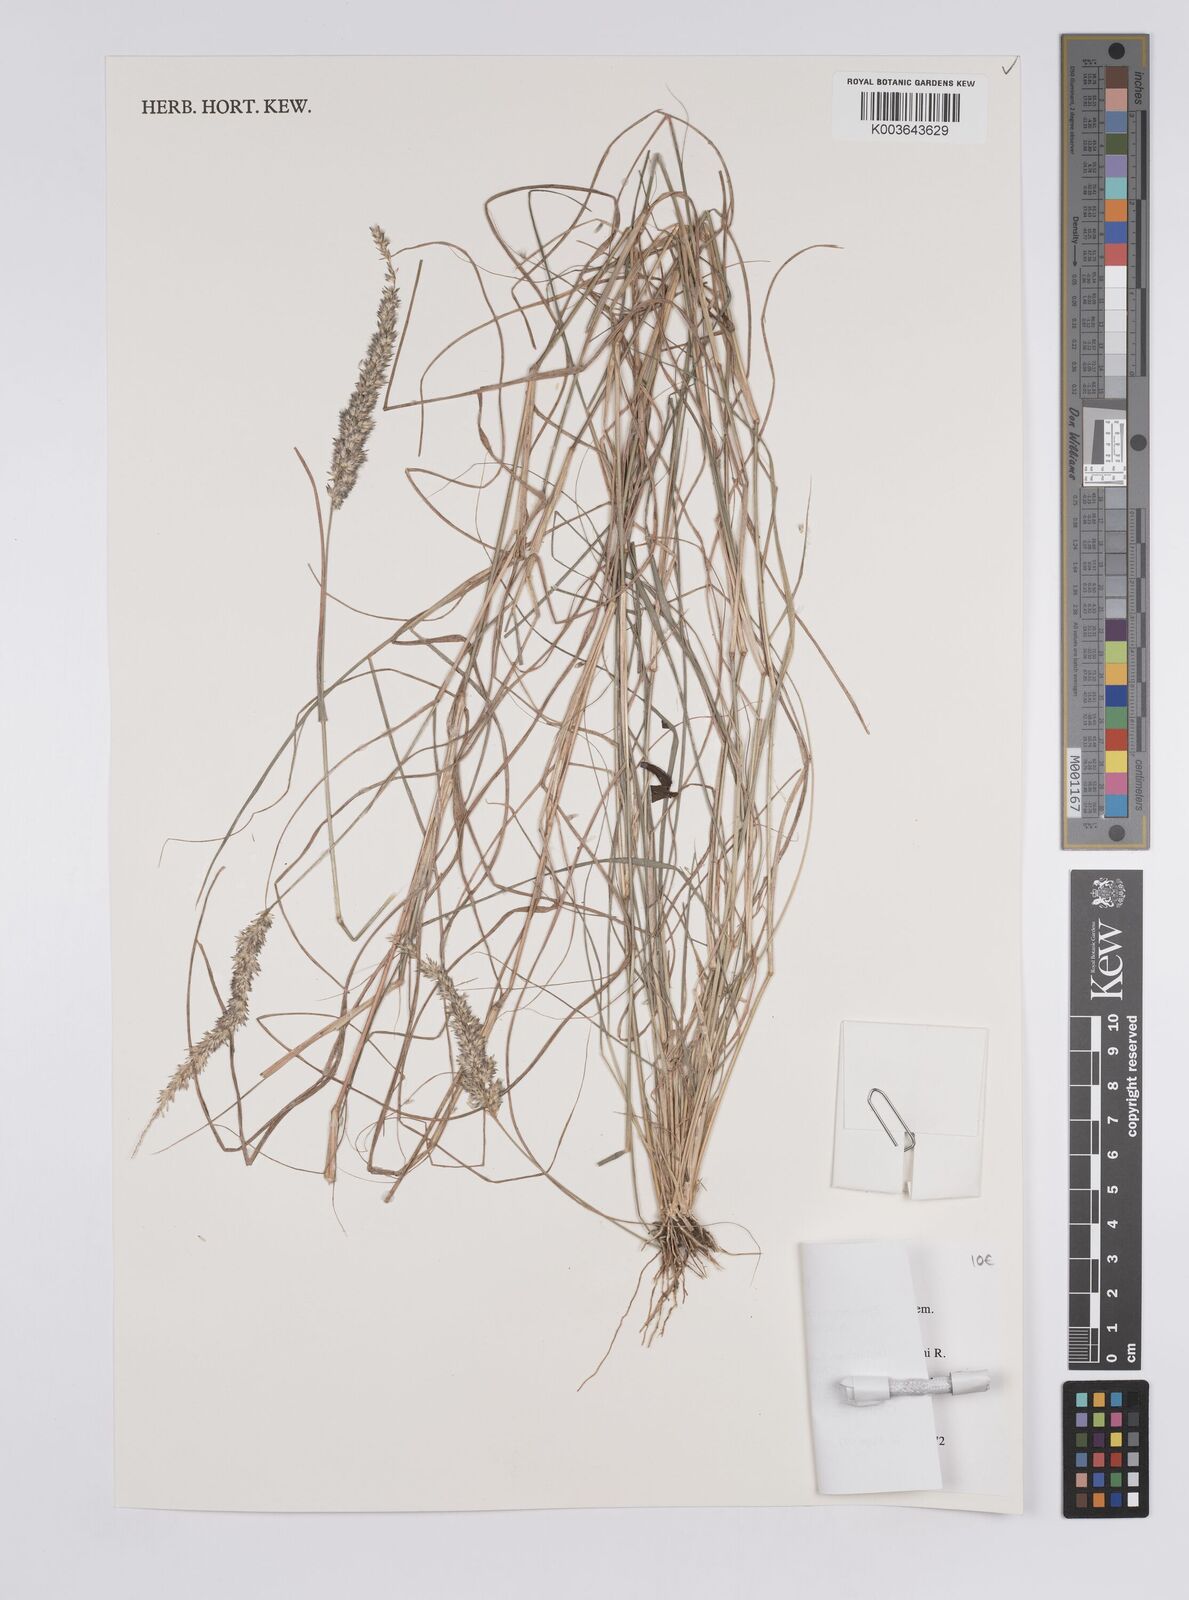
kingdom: Plantae
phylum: Tracheophyta
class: Liliopsida
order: Poales
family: Poaceae
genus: Enneapogon
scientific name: Enneapogon cenchroides
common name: Soft feather pappusgrass
